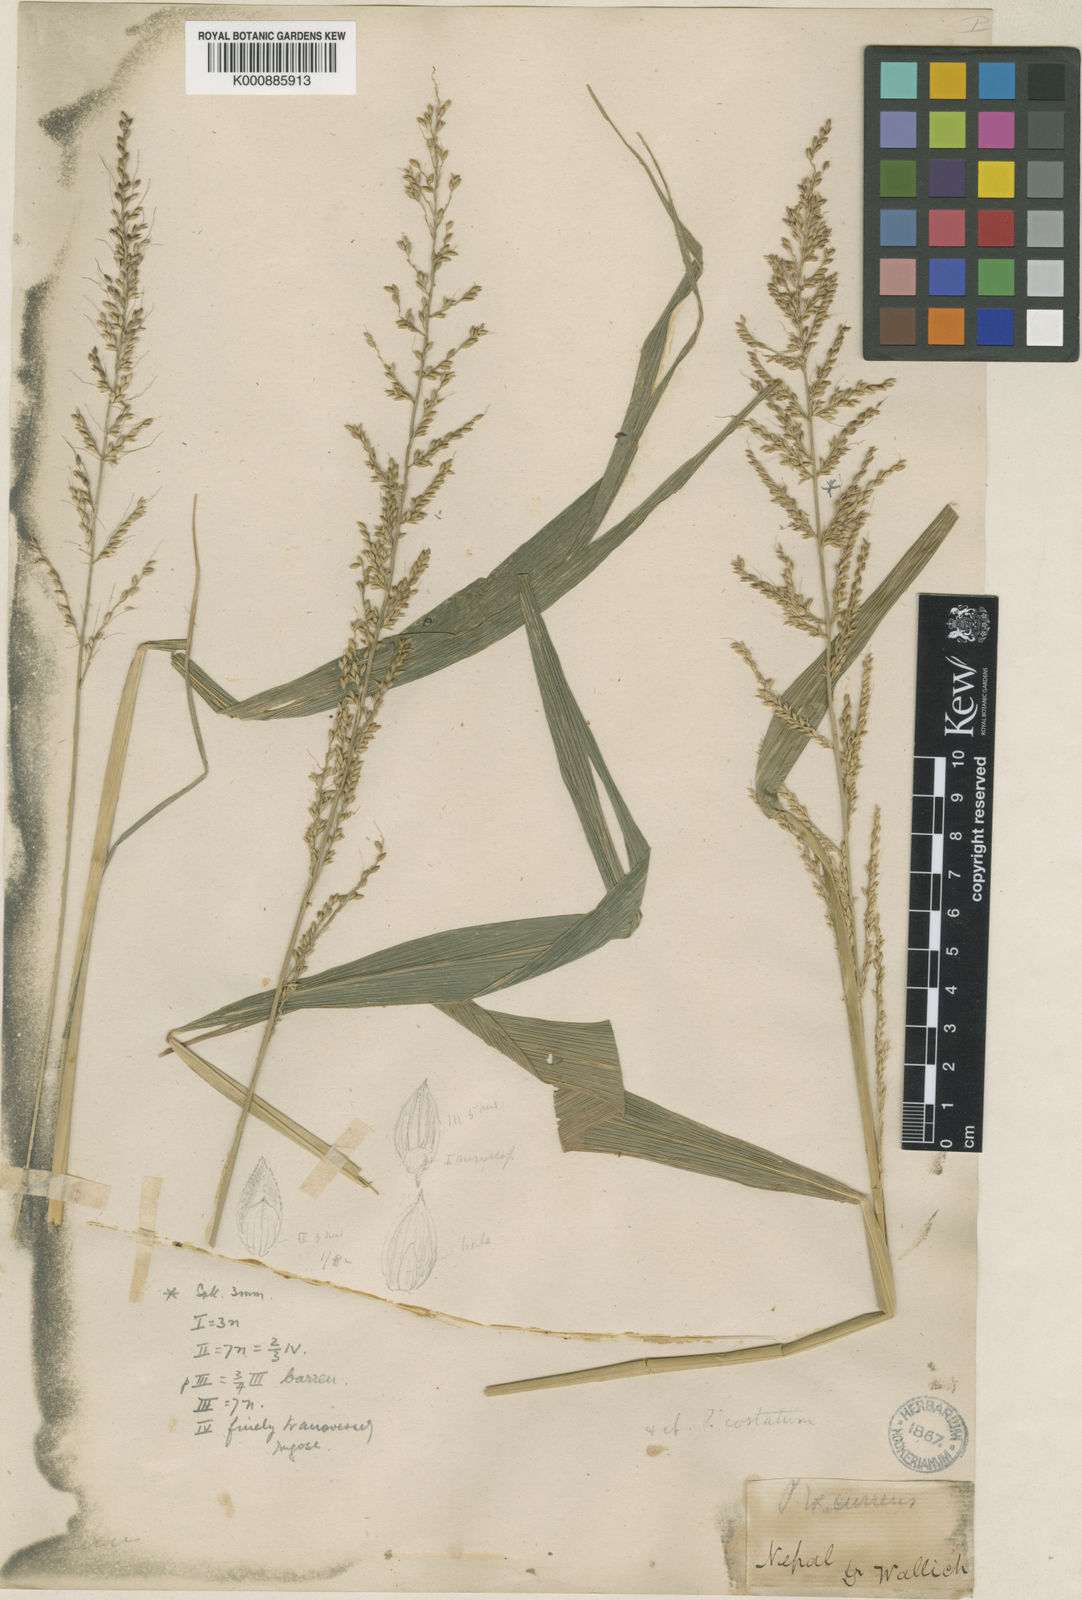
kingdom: Plantae
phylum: Tracheophyta
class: Liliopsida
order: Poales
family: Poaceae
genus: Setaria
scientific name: Setaria plicata
